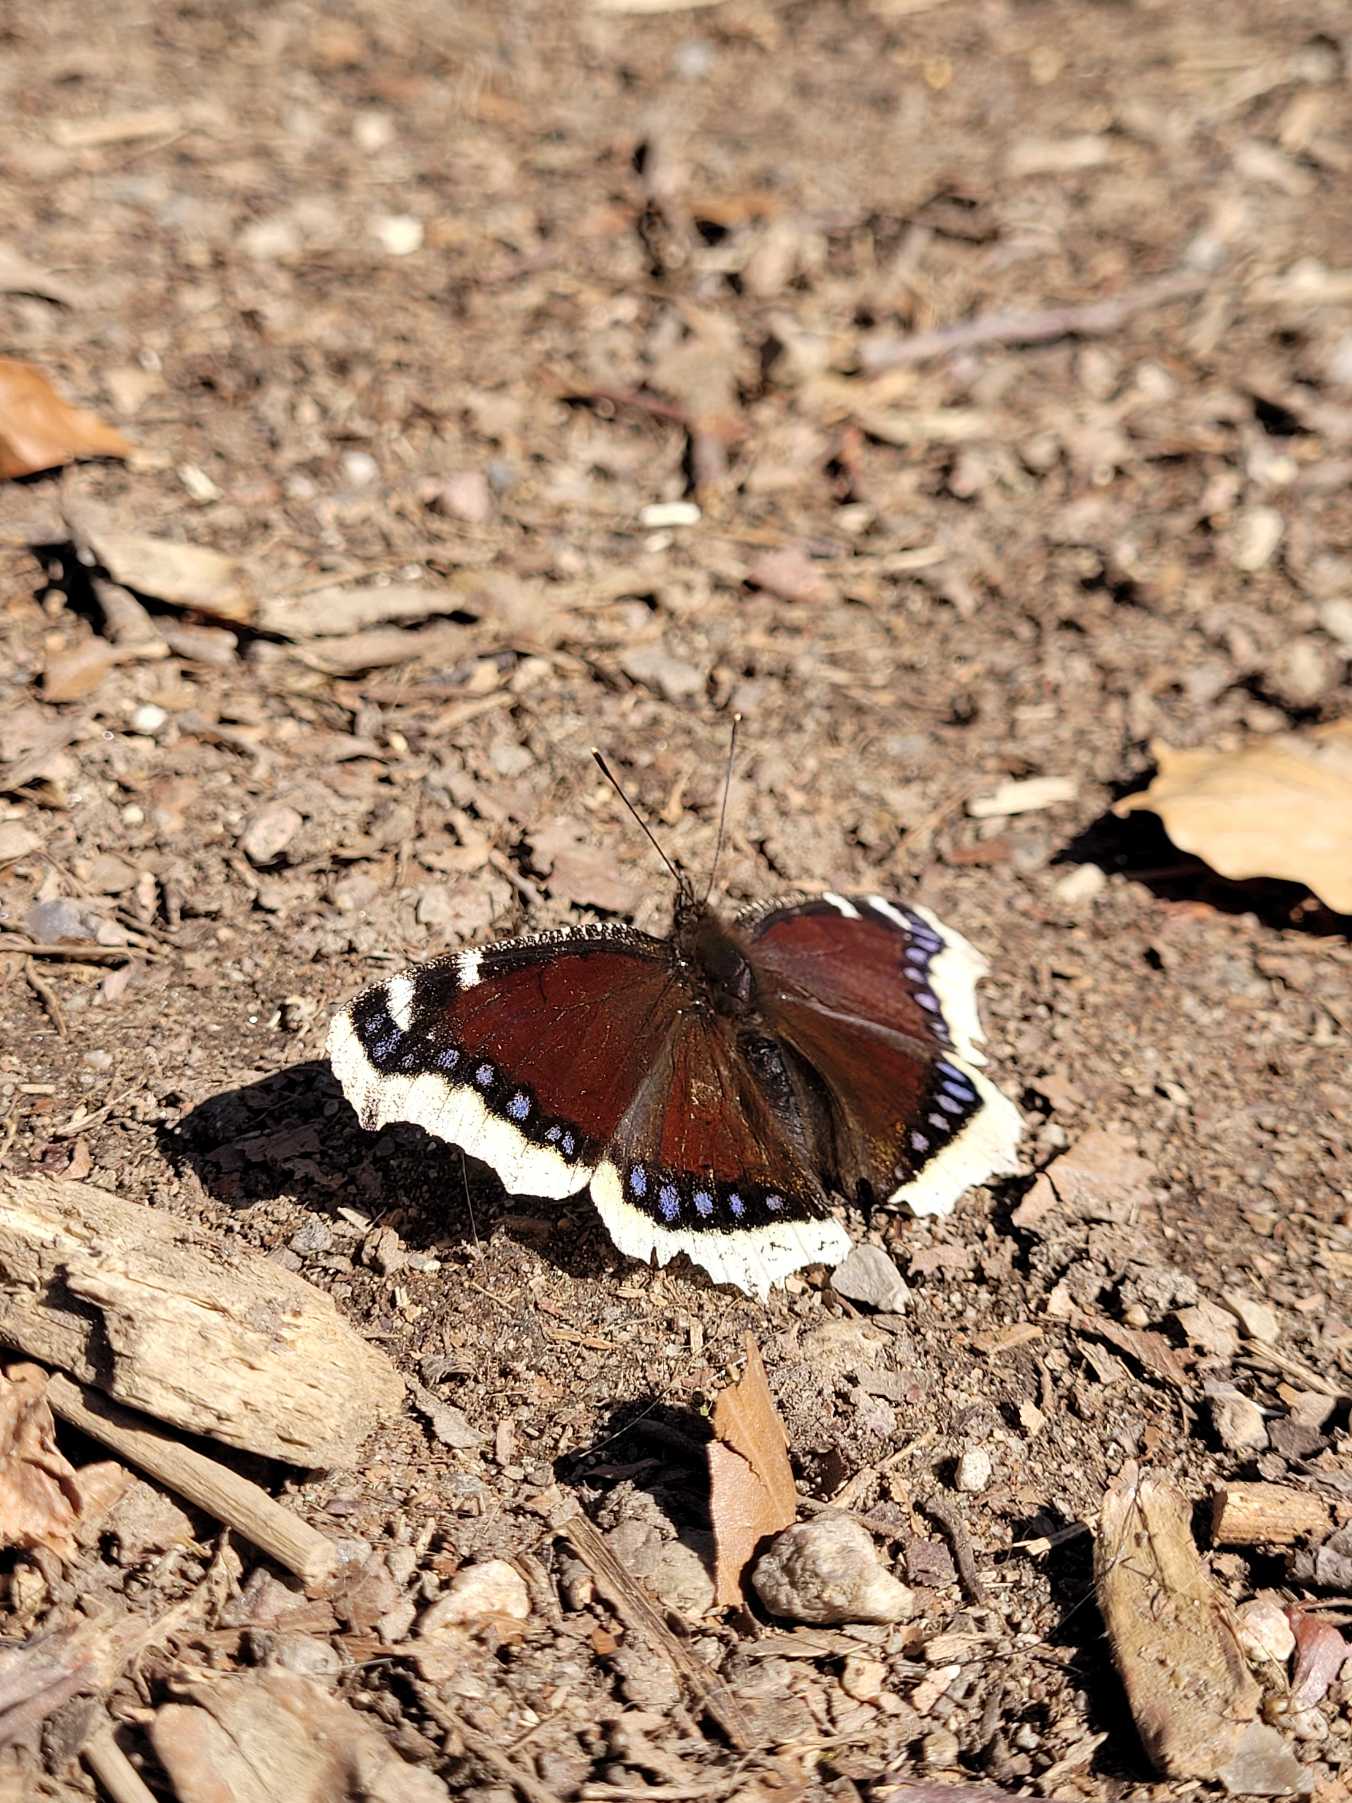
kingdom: Animalia
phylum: Arthropoda
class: Insecta
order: Lepidoptera
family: Nymphalidae
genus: Nymphalis
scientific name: Nymphalis antiopa
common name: Sørgekåbe
